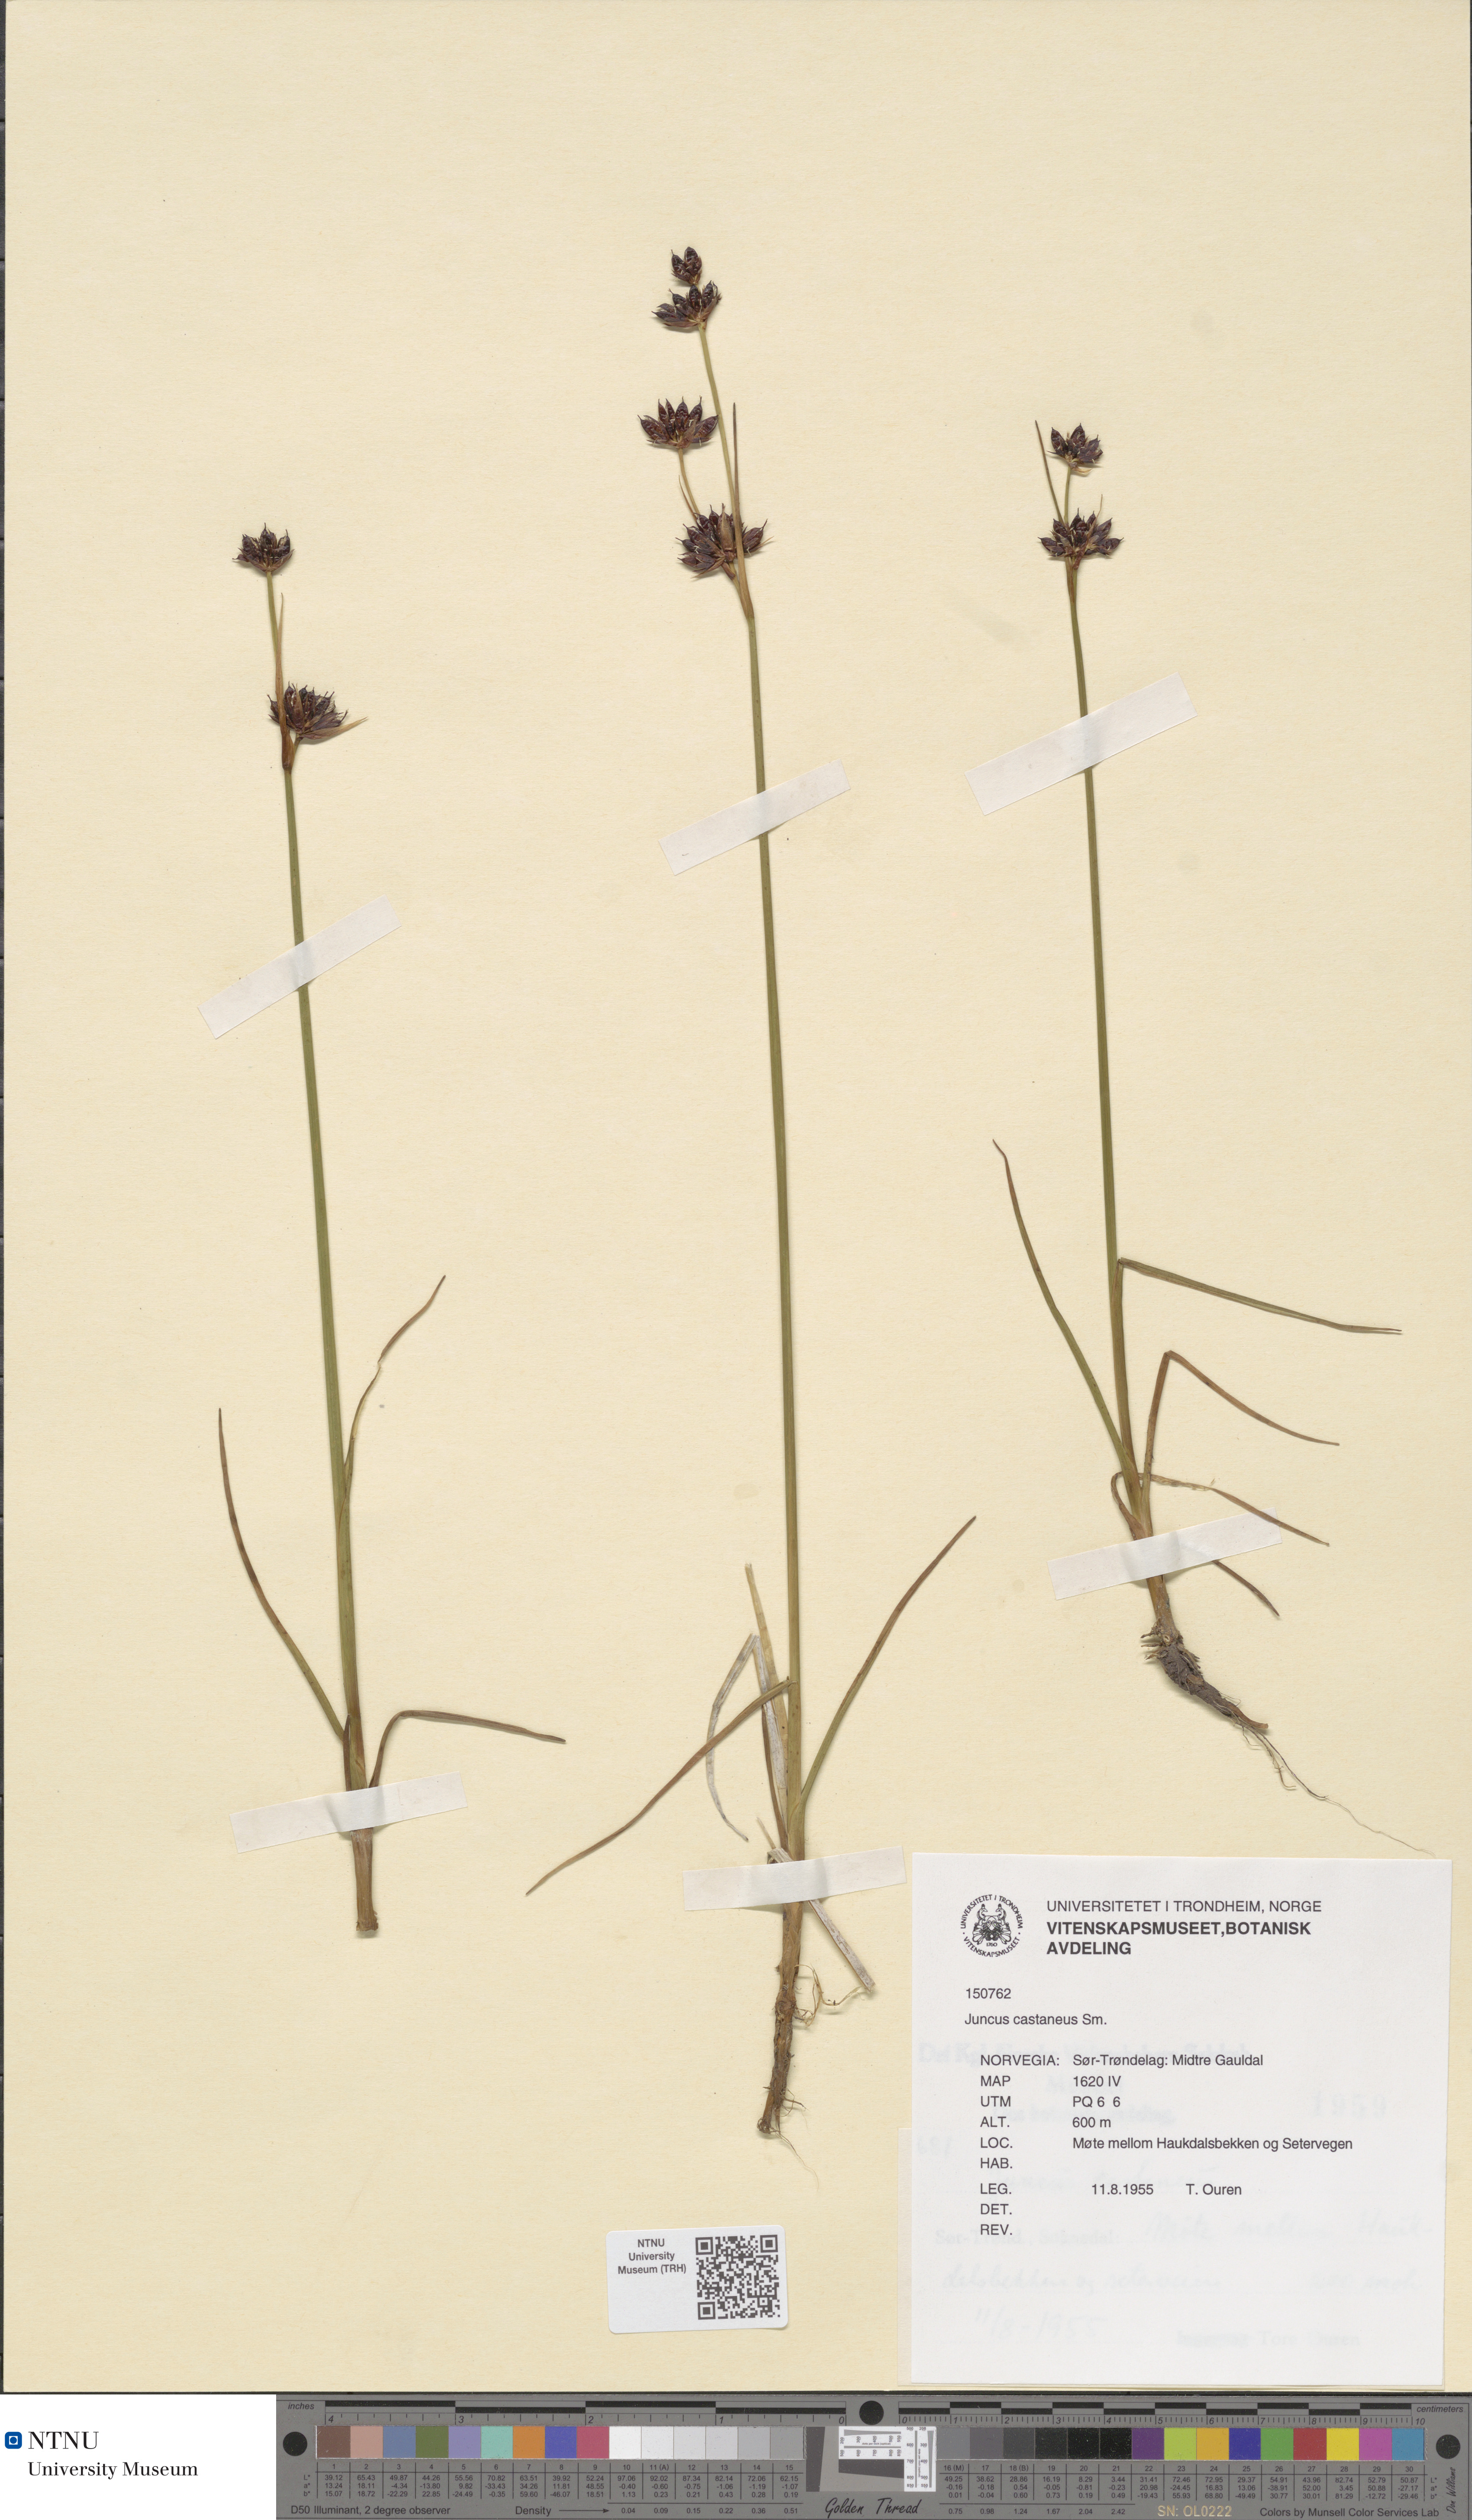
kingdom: Plantae
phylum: Tracheophyta
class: Liliopsida
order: Poales
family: Juncaceae
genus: Juncus
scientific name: Juncus castaneus
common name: Chestnut rush
